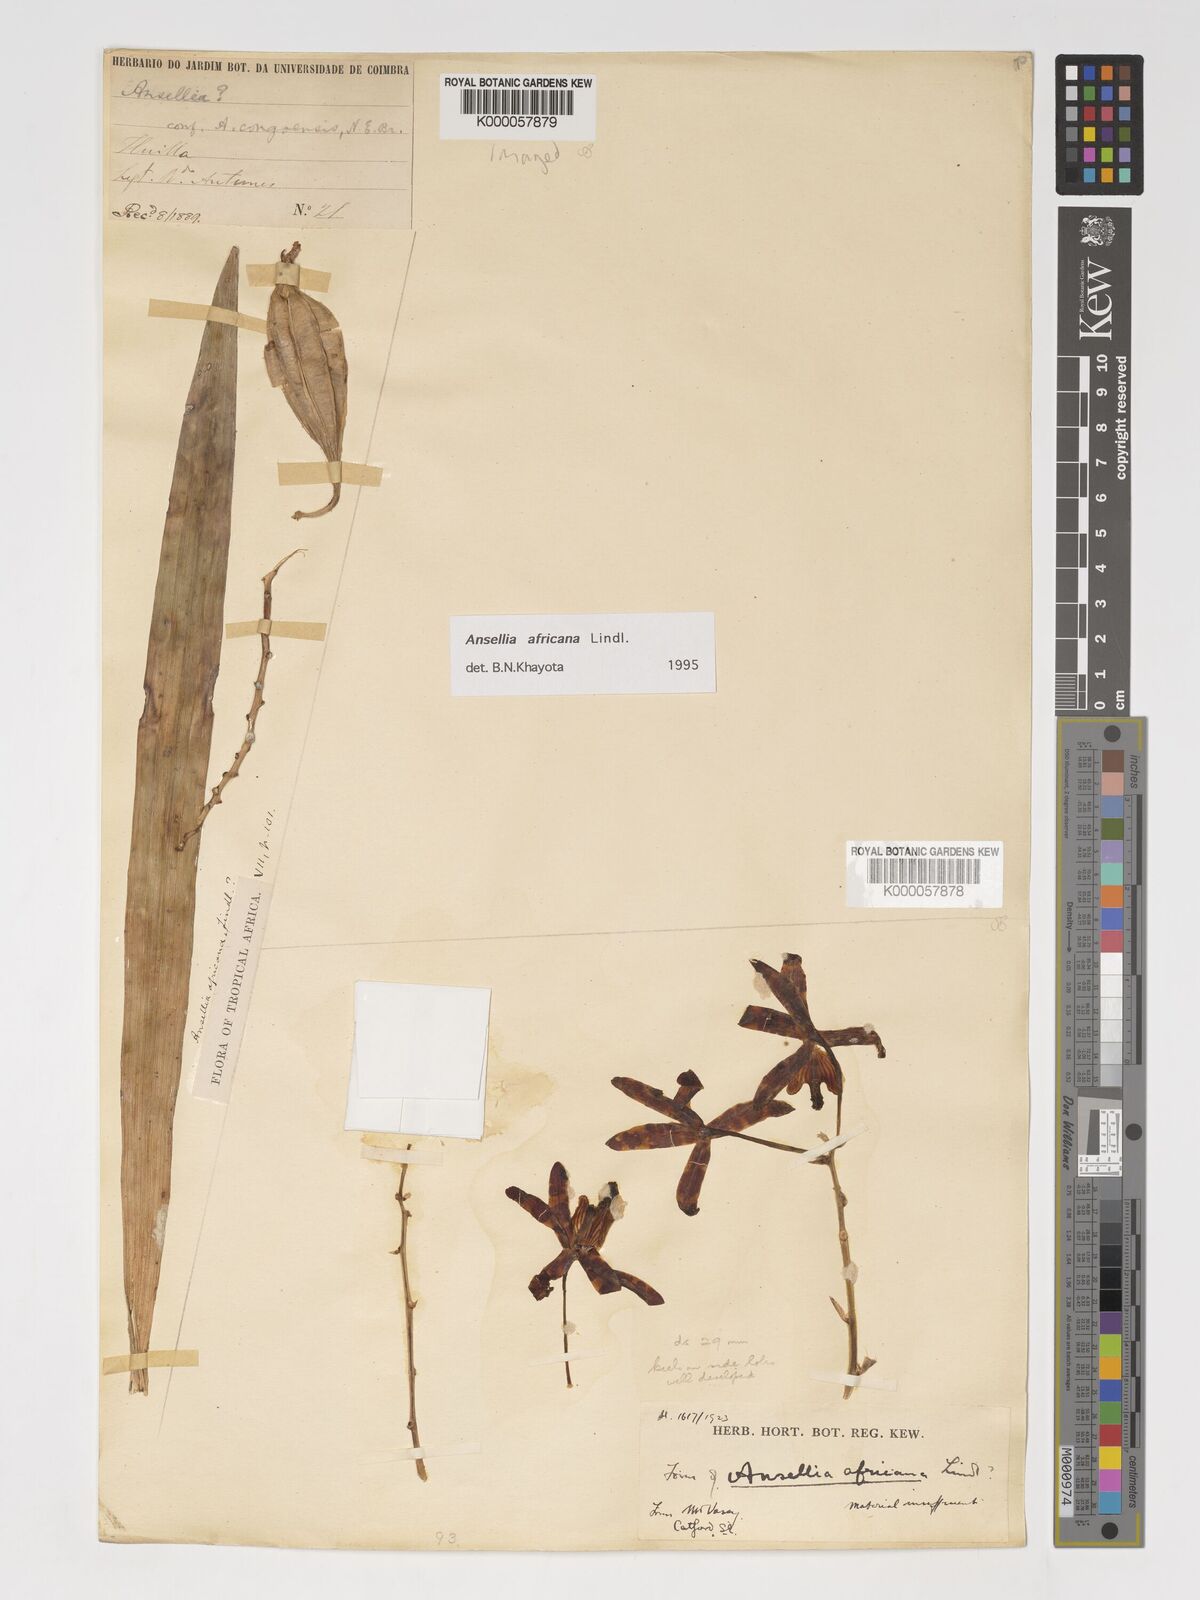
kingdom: Plantae
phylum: Tracheophyta
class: Liliopsida
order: Asparagales
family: Orchidaceae
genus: Ansellia
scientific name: Ansellia africana
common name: African ansellia
